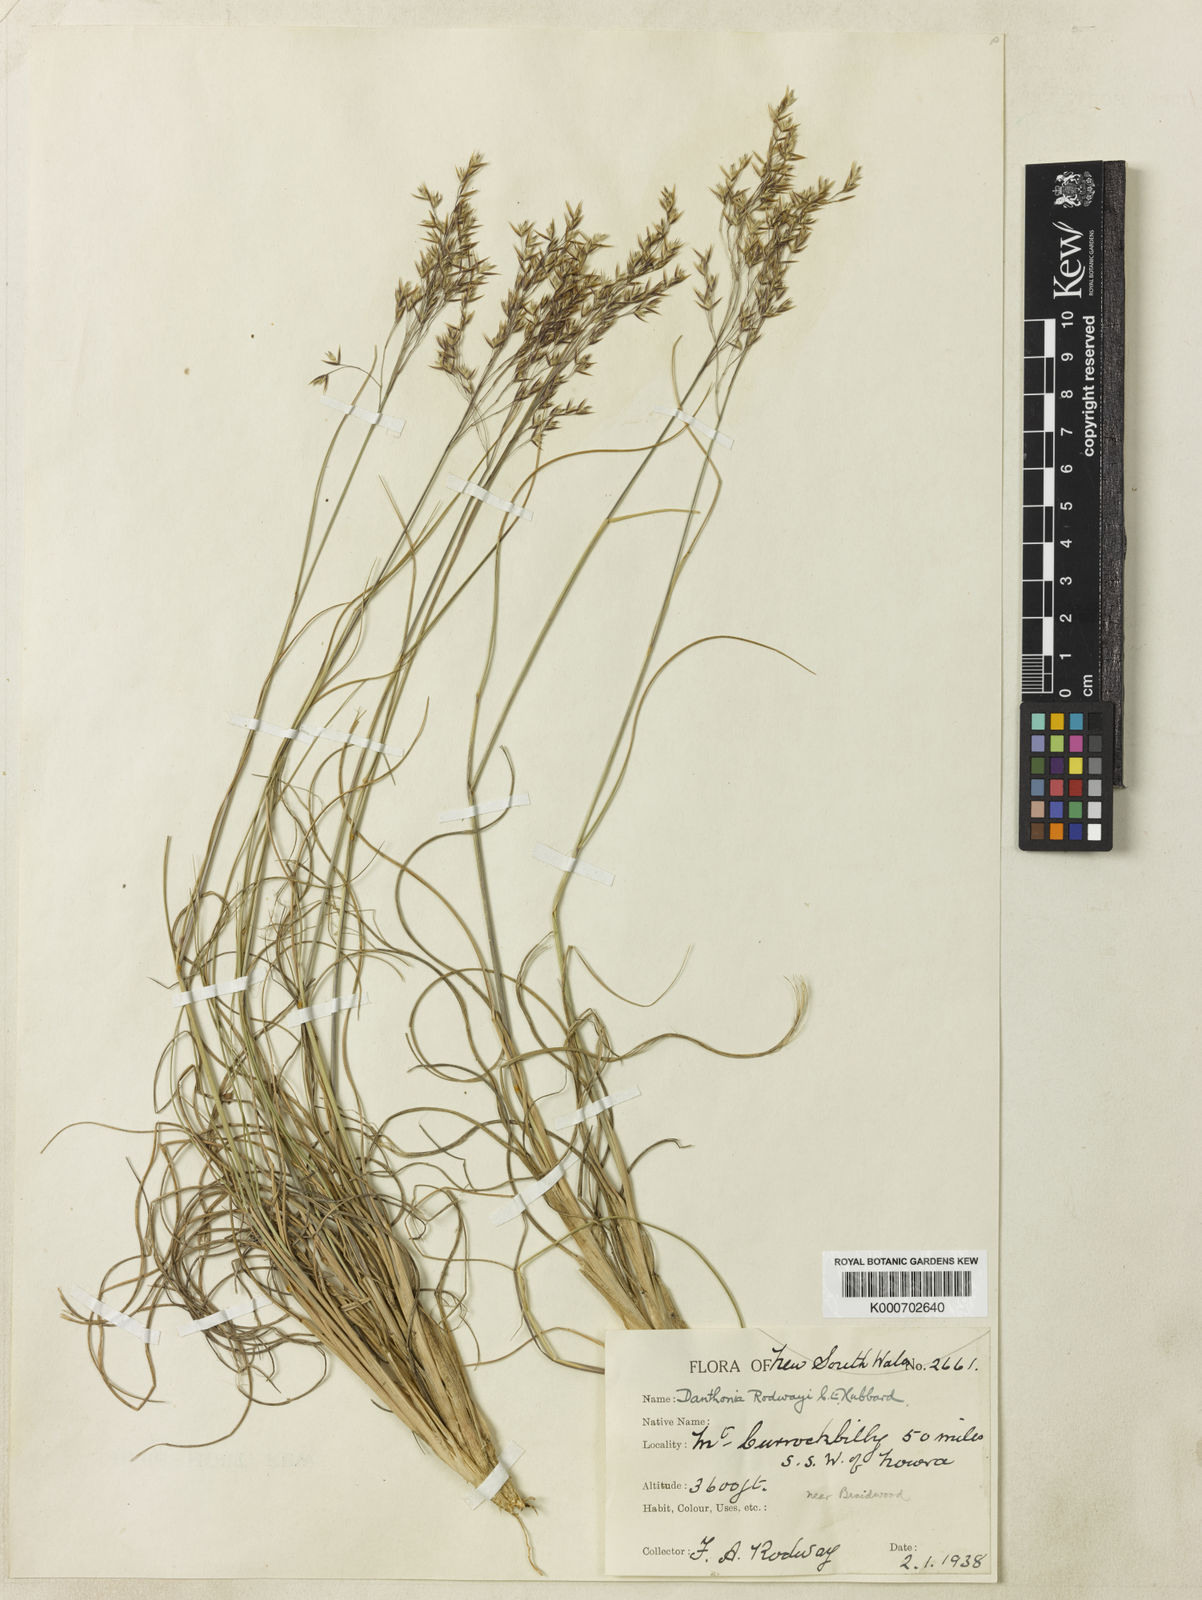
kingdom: Plantae
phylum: Tracheophyta
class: Liliopsida
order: Poales
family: Poaceae
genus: Plinthanthesis
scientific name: Plinthanthesis rodwayi
